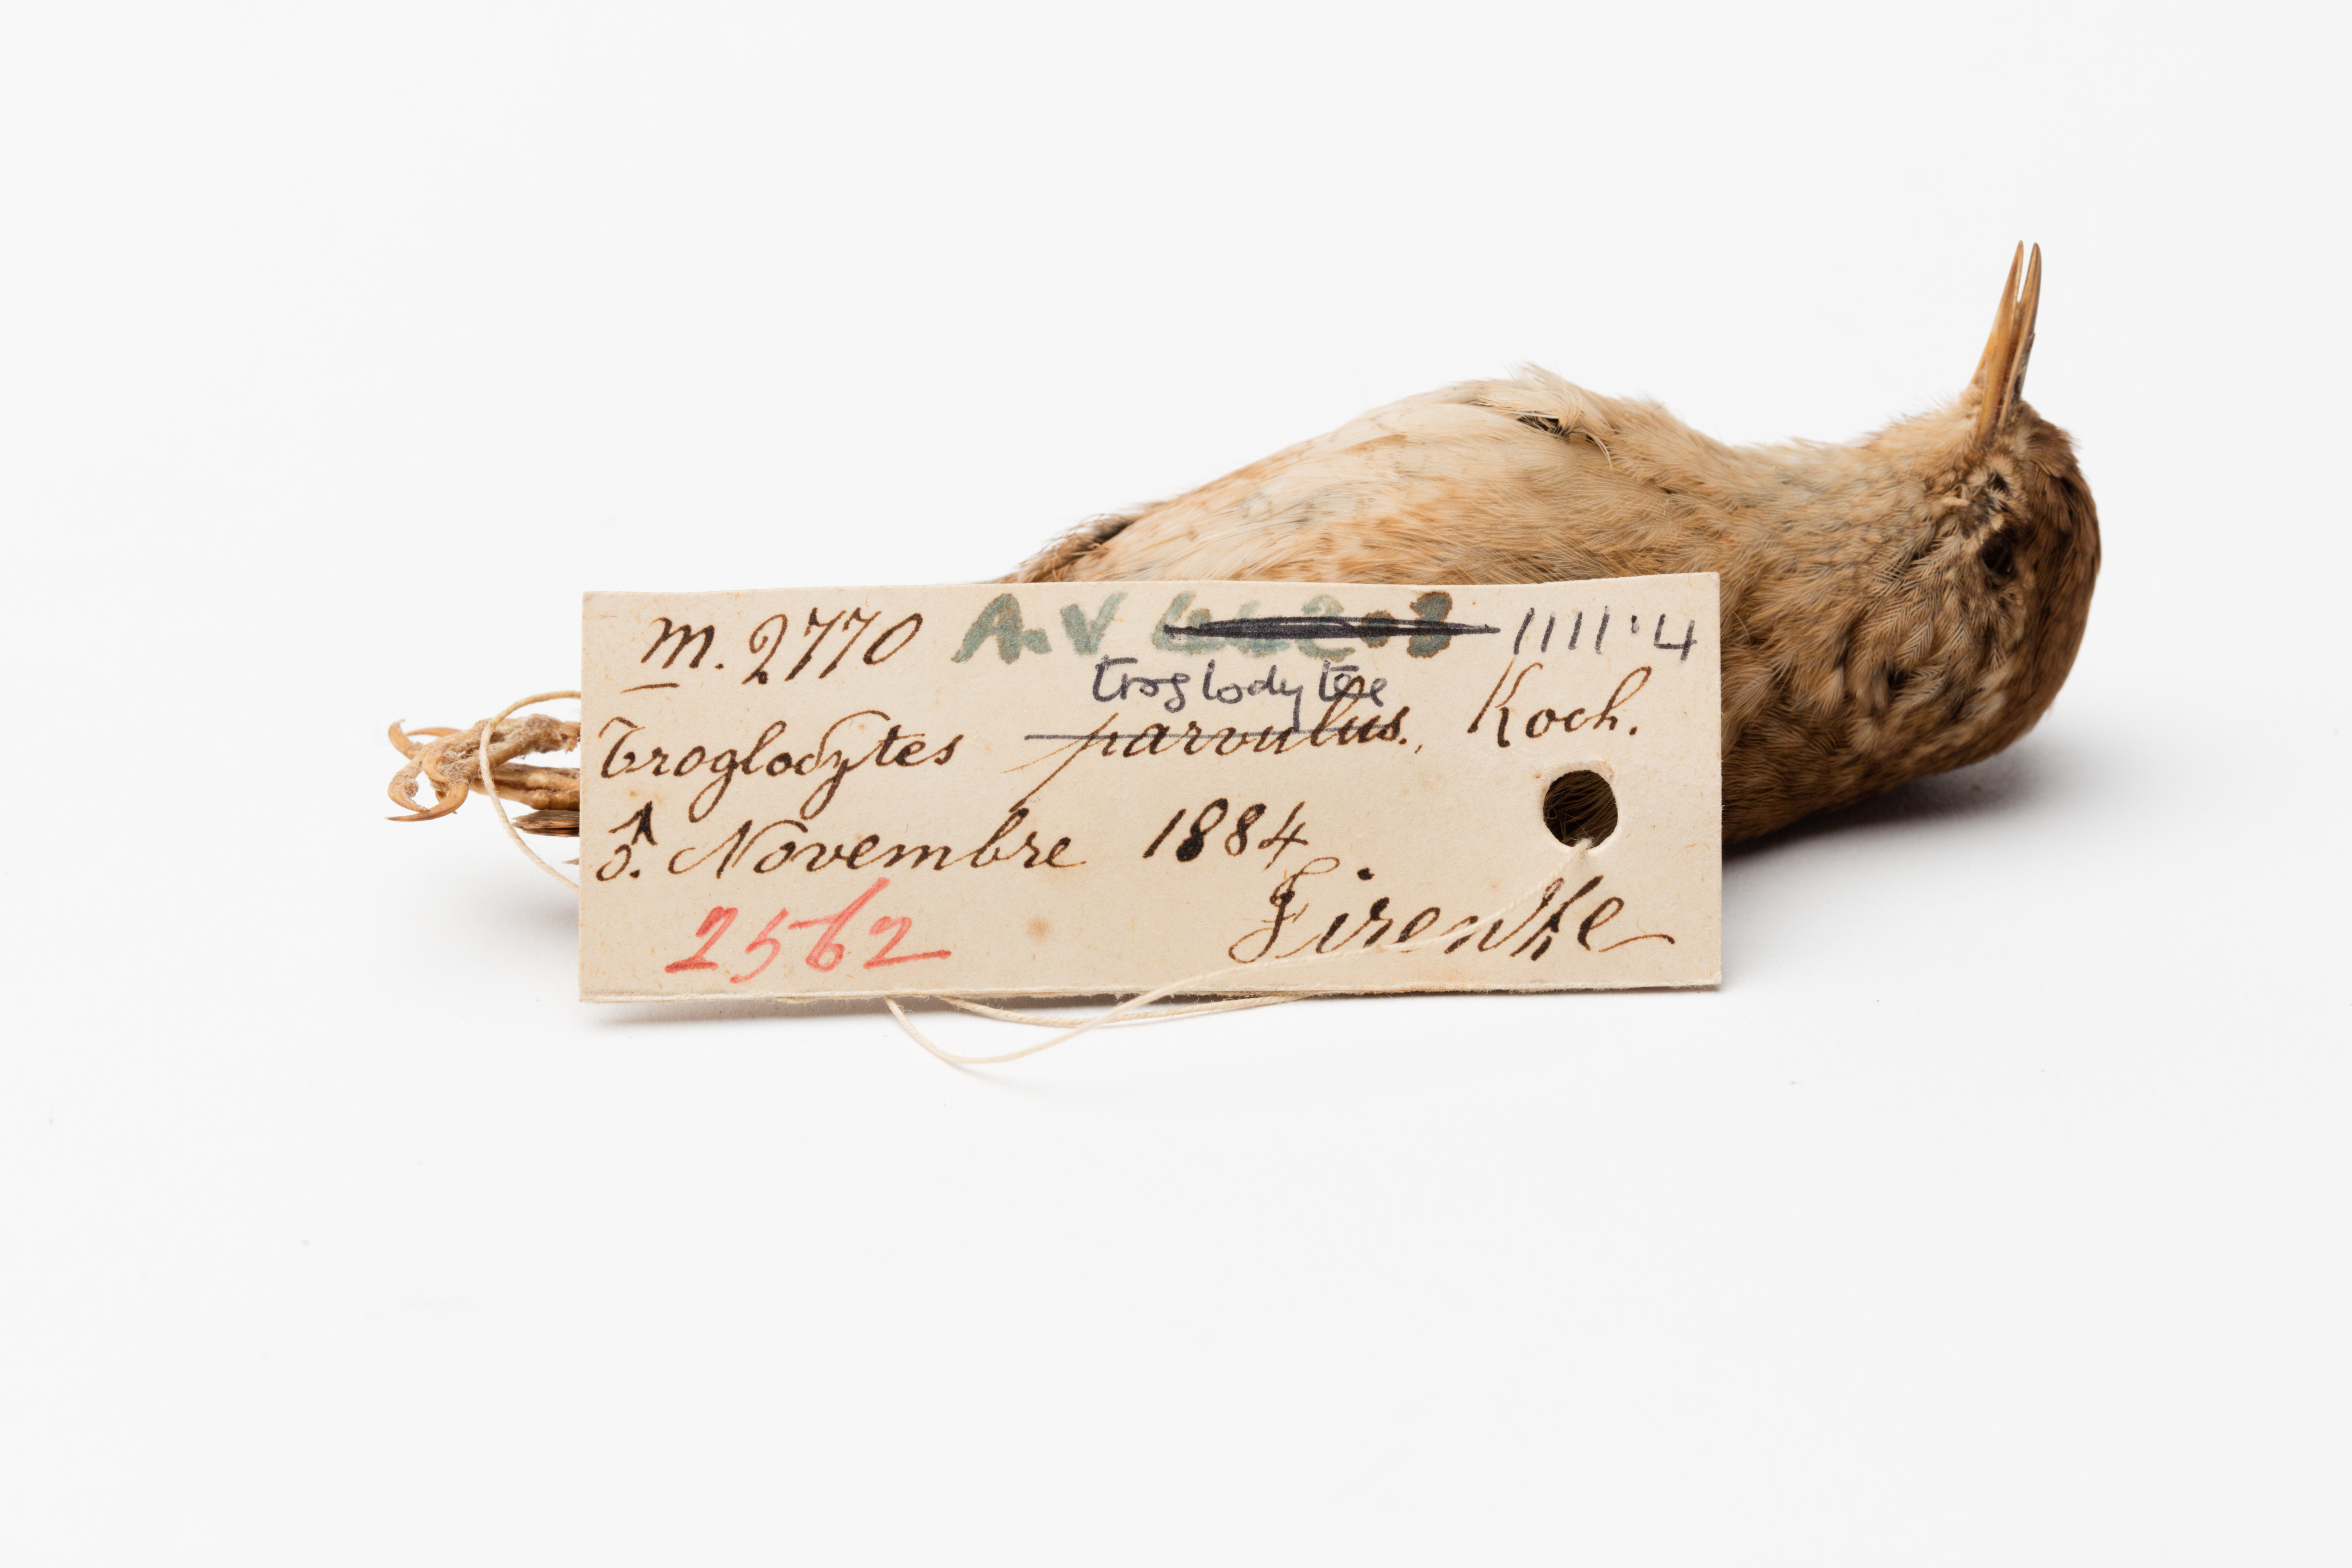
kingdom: Animalia
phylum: Chordata
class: Aves
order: Passeriformes
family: Troglodytidae
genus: Troglodytes
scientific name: Troglodytes troglodytes
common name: Eurasian wren
